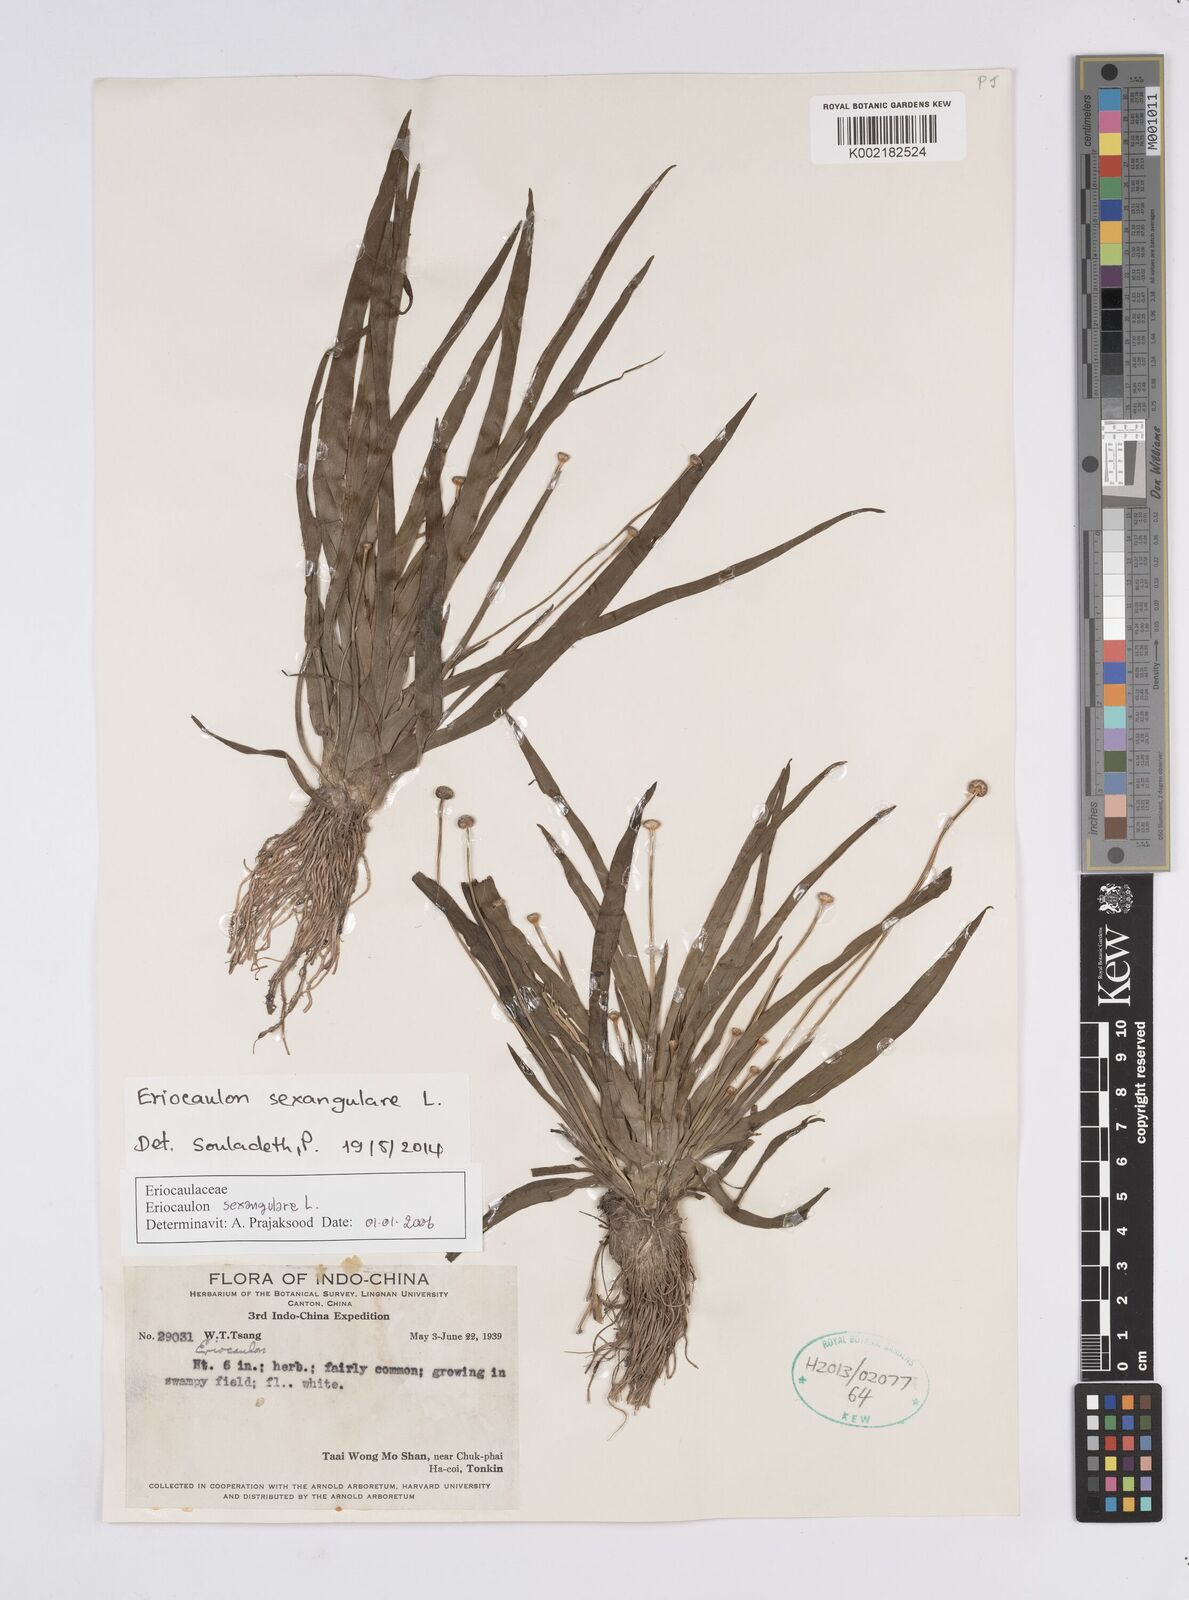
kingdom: Plantae
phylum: Tracheophyta
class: Liliopsida
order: Poales
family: Eriocaulaceae
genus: Eriocaulon
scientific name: Eriocaulon sexangulare
